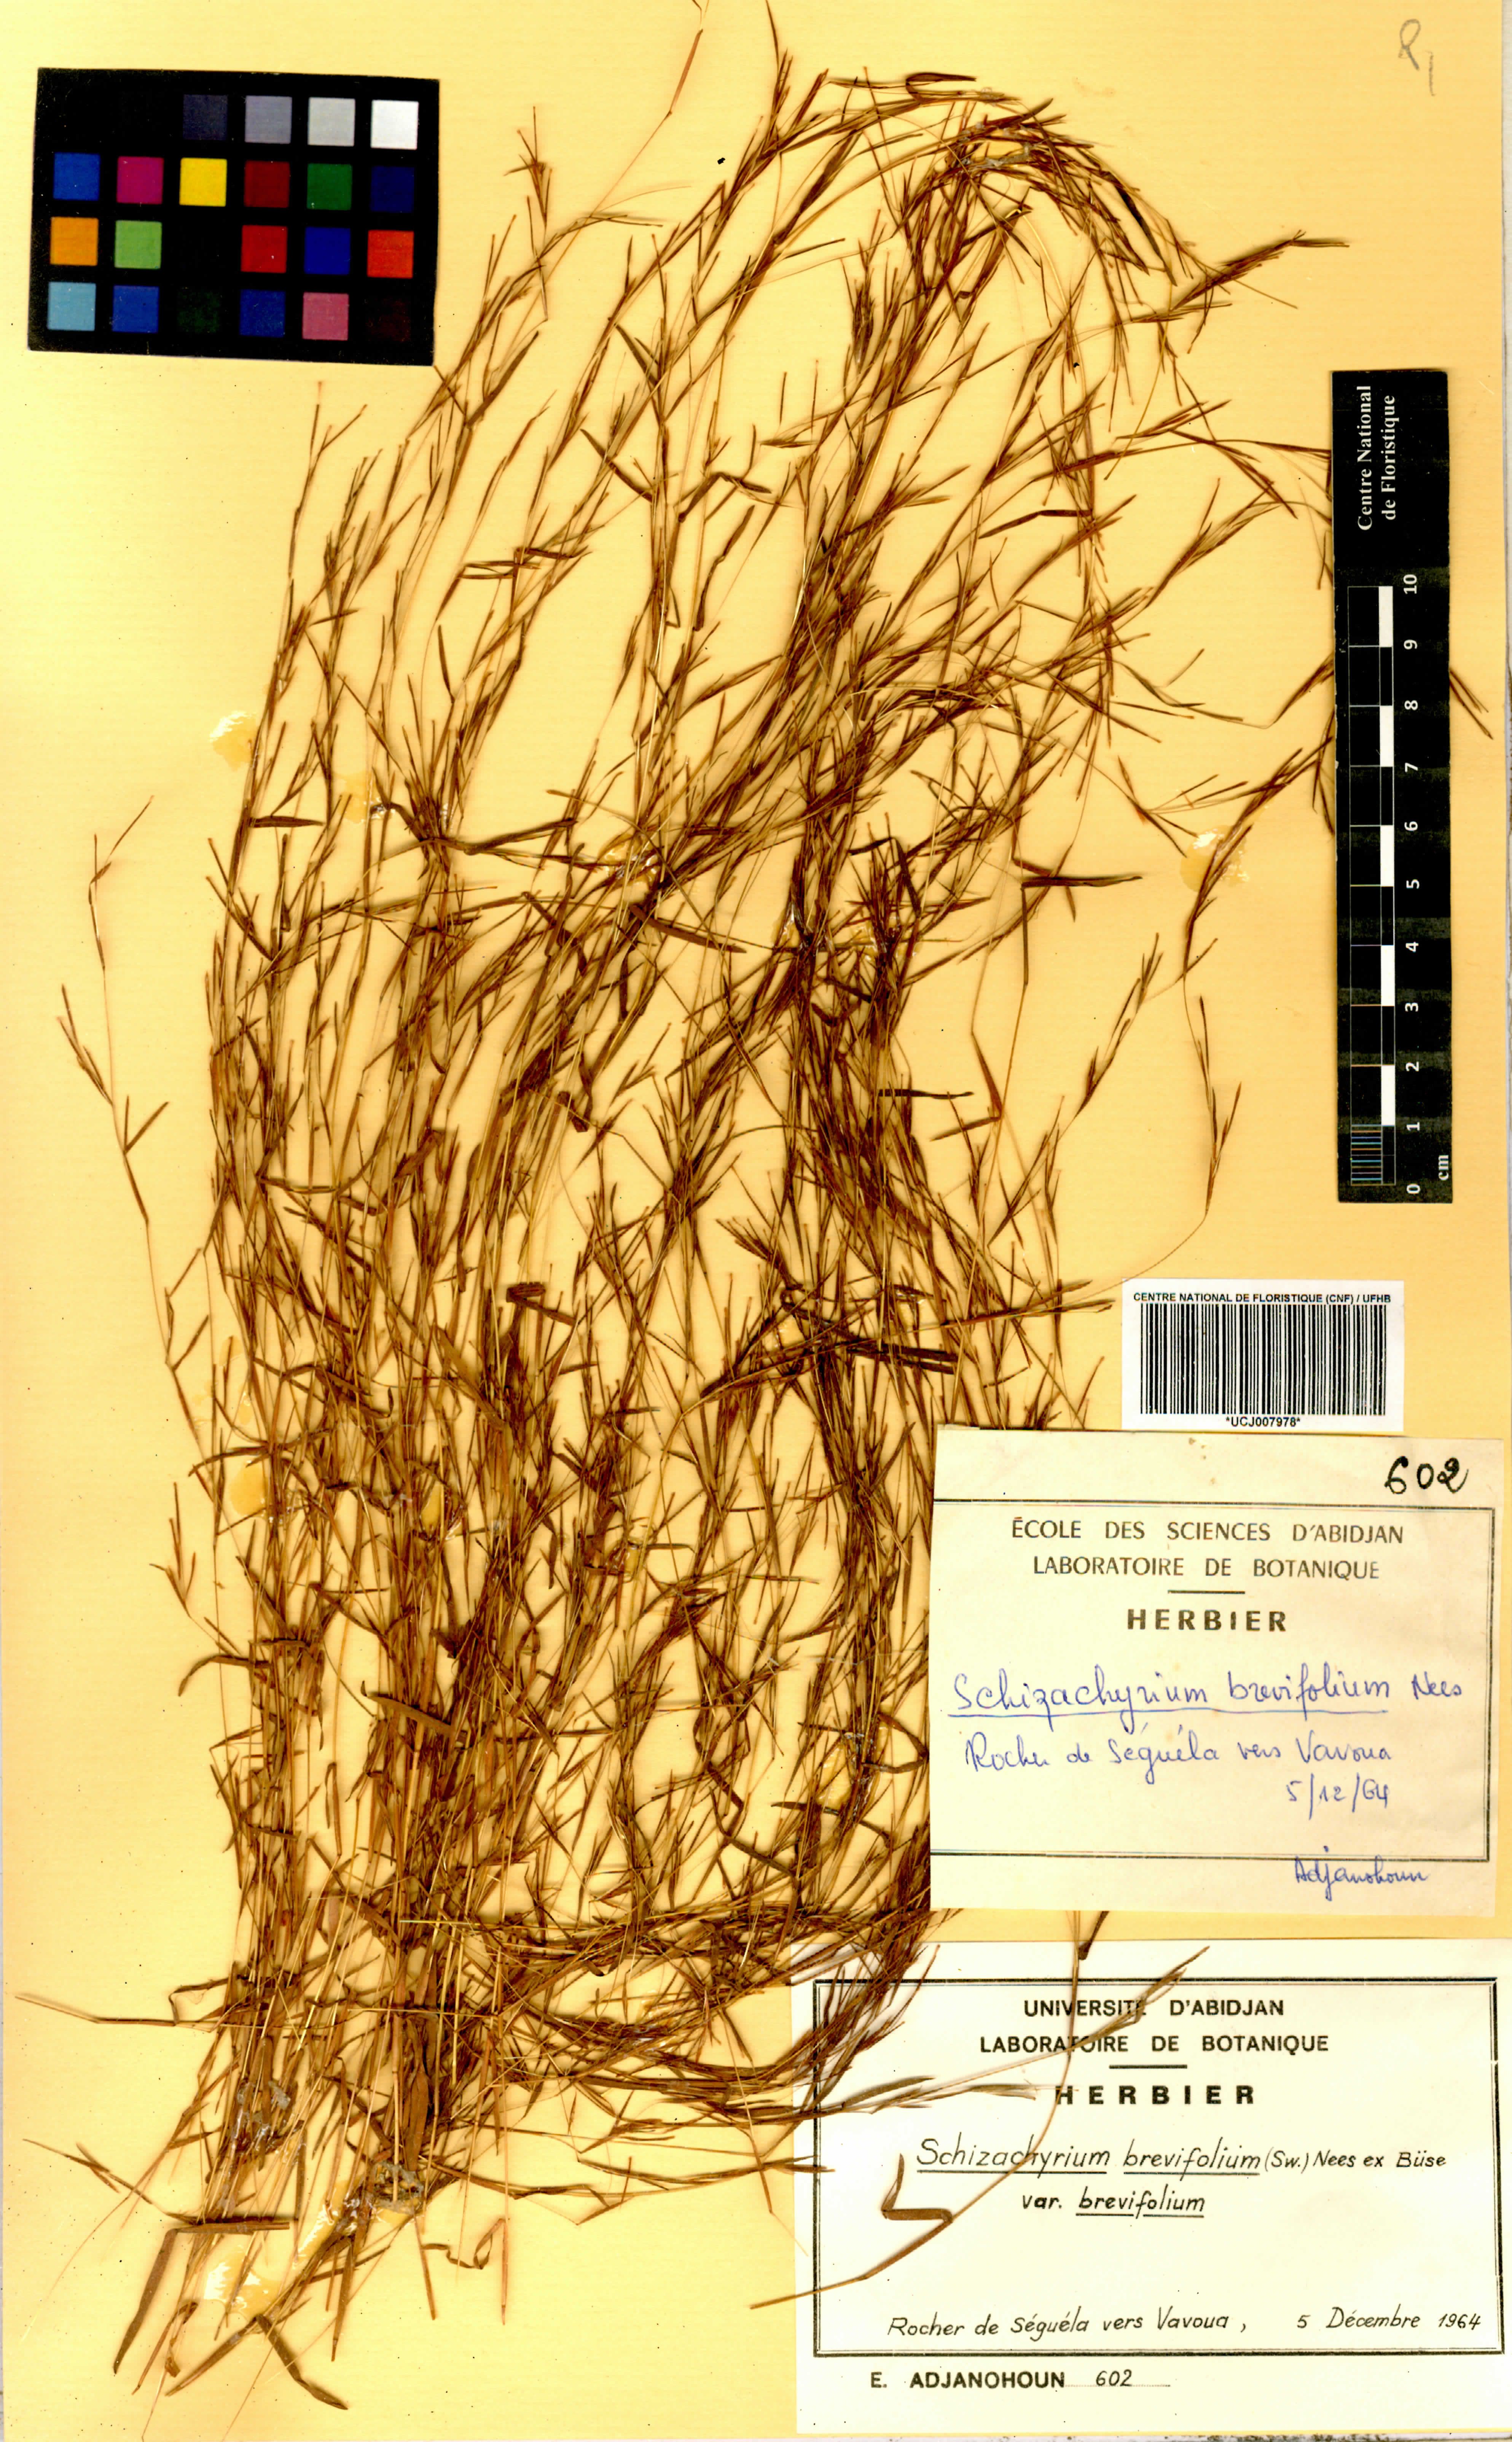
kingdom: Plantae
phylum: Tracheophyta
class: Liliopsida
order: Poales
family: Poaceae
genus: Schizachyrium
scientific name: Schizachyrium brevifolium
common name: Serillo dulce
